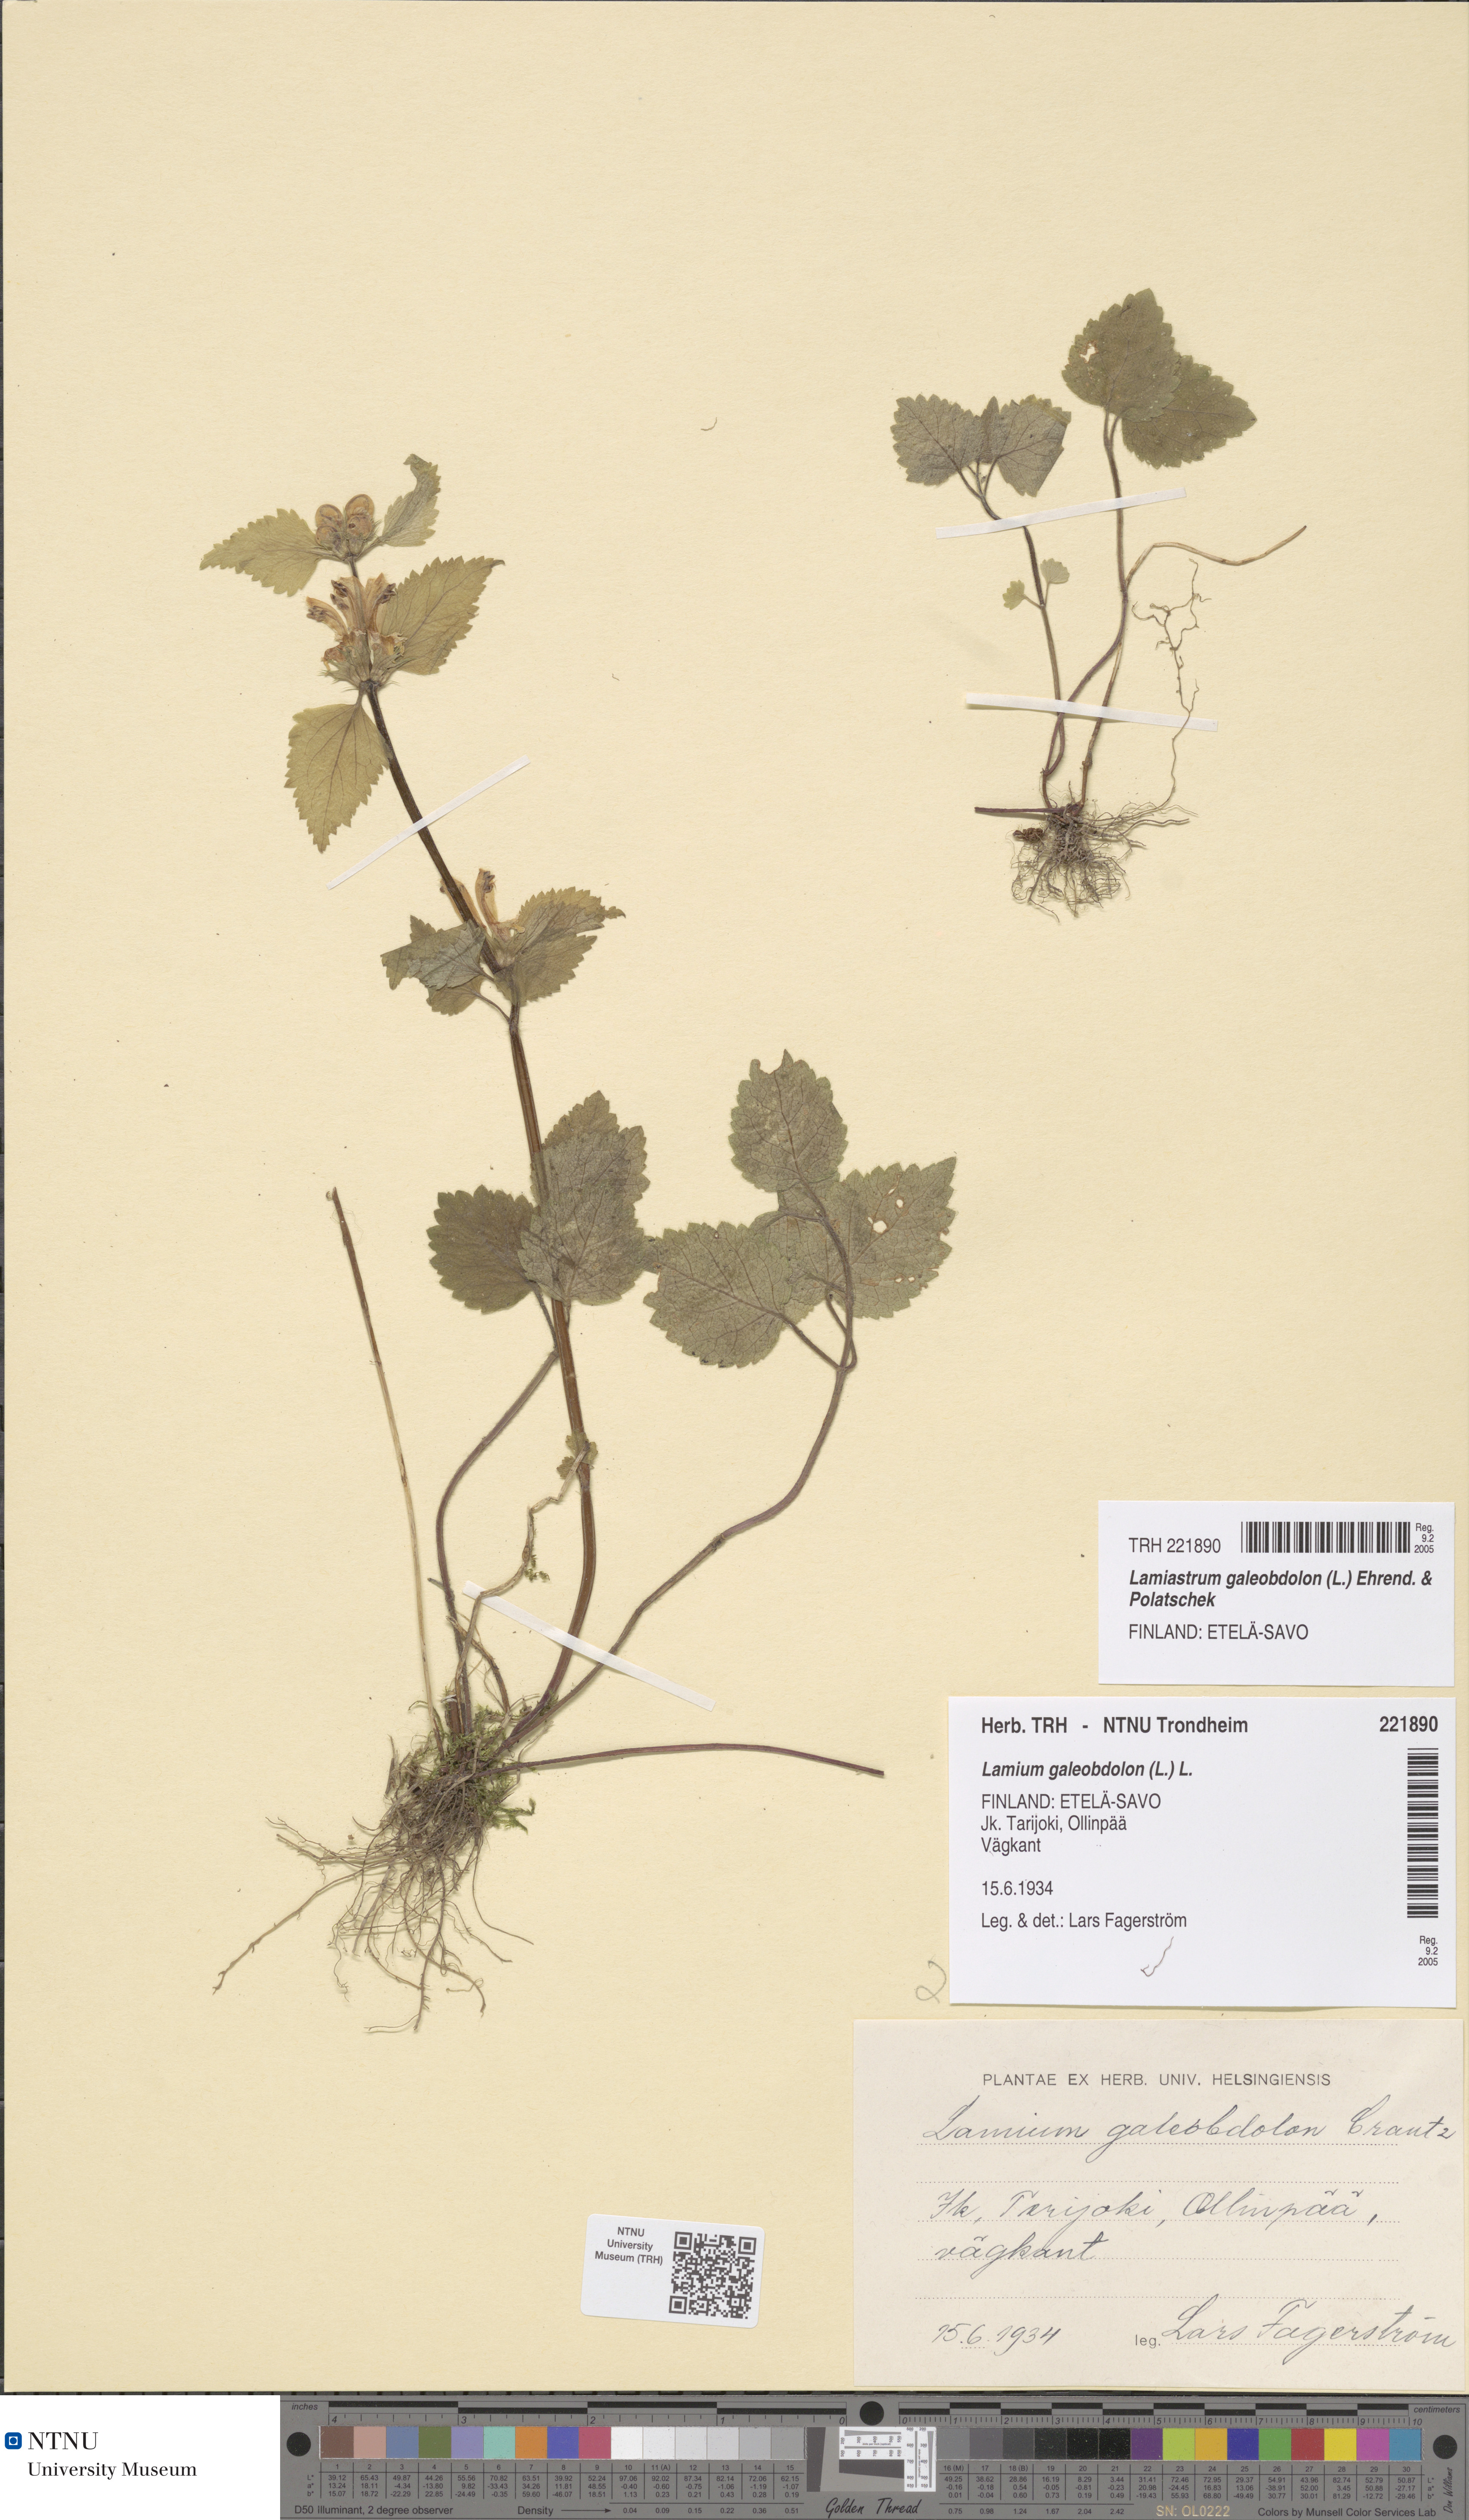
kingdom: Plantae
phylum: Tracheophyta
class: Magnoliopsida
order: Lamiales
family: Lamiaceae
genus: Lamium
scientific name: Lamium galeobdolon
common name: Yellow archangel
